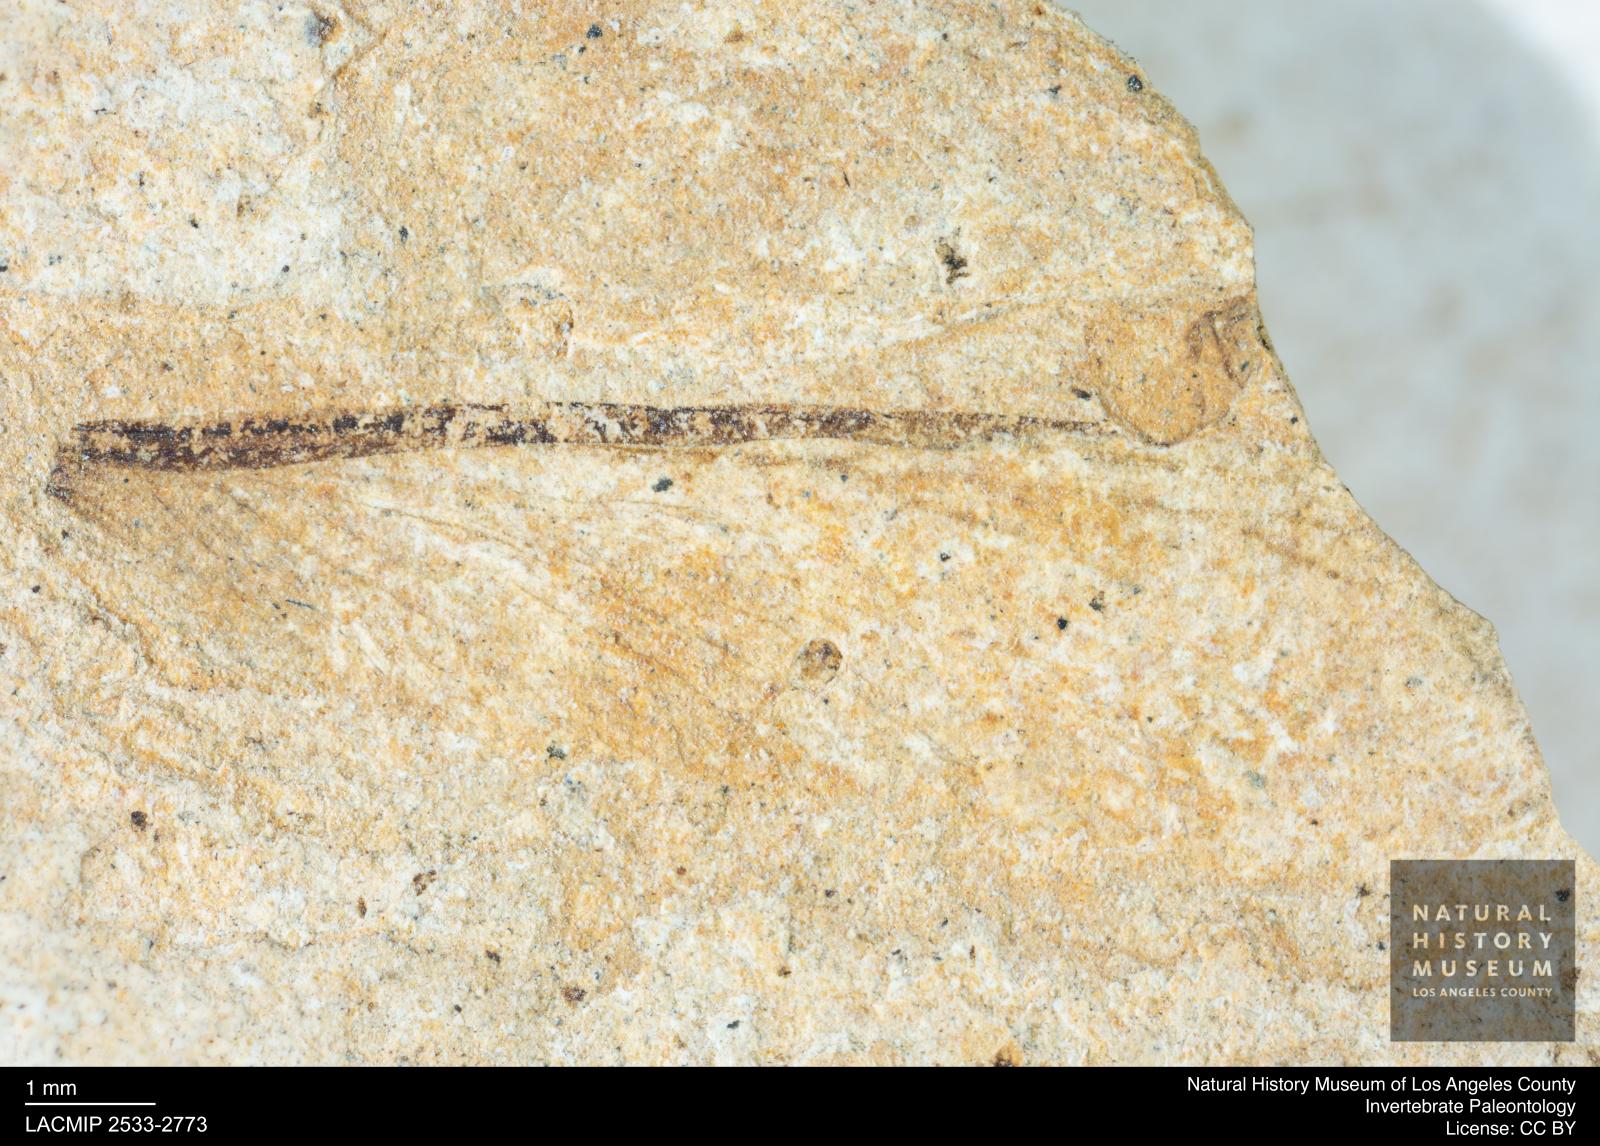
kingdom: Animalia
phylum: Arthropoda
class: Insecta
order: Blattodea
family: Hodotermitidae
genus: Ulmeriella
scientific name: Ulmeriella bauckhorni
